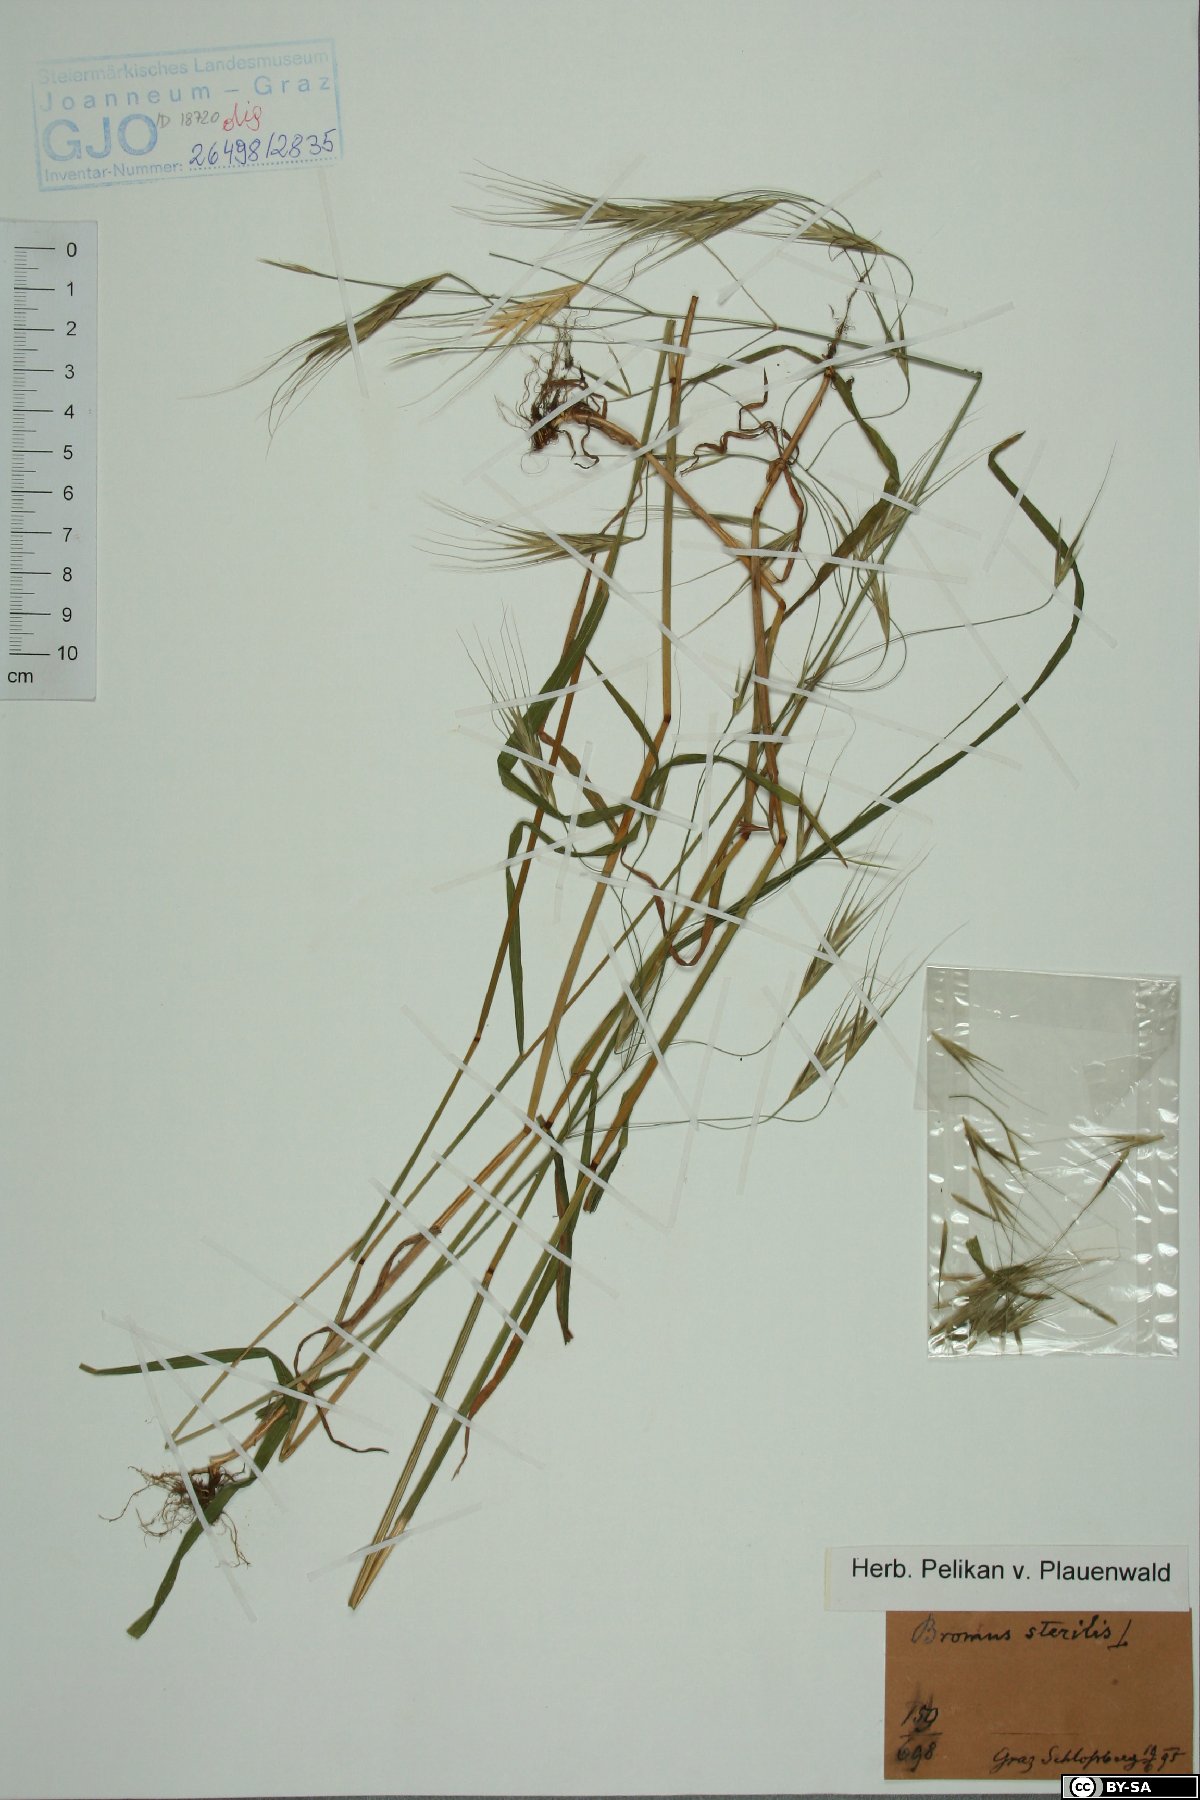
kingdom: Plantae
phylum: Tracheophyta
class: Liliopsida
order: Poales
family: Poaceae
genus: Bromus
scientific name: Bromus sterilis
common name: Poverty brome
